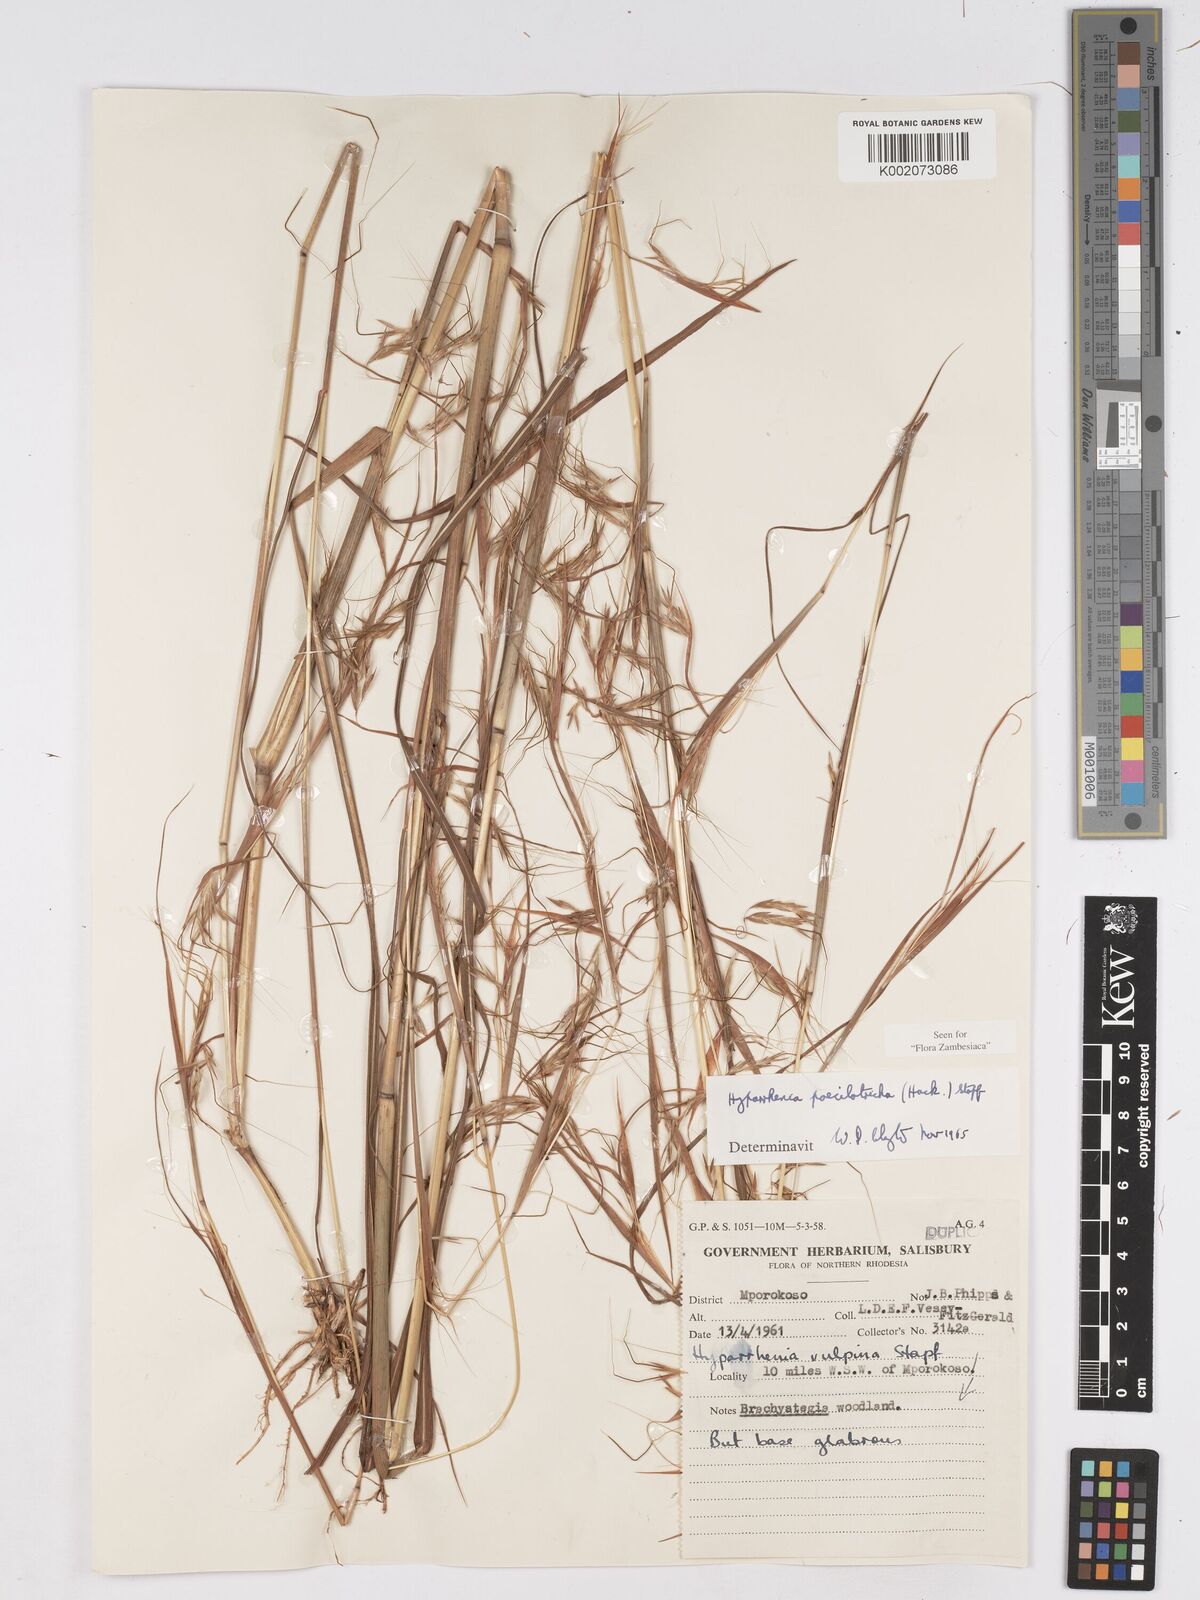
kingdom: Plantae
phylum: Tracheophyta
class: Liliopsida
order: Poales
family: Poaceae
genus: Hyparrhenia
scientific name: Hyparrhenia poecilotricha
